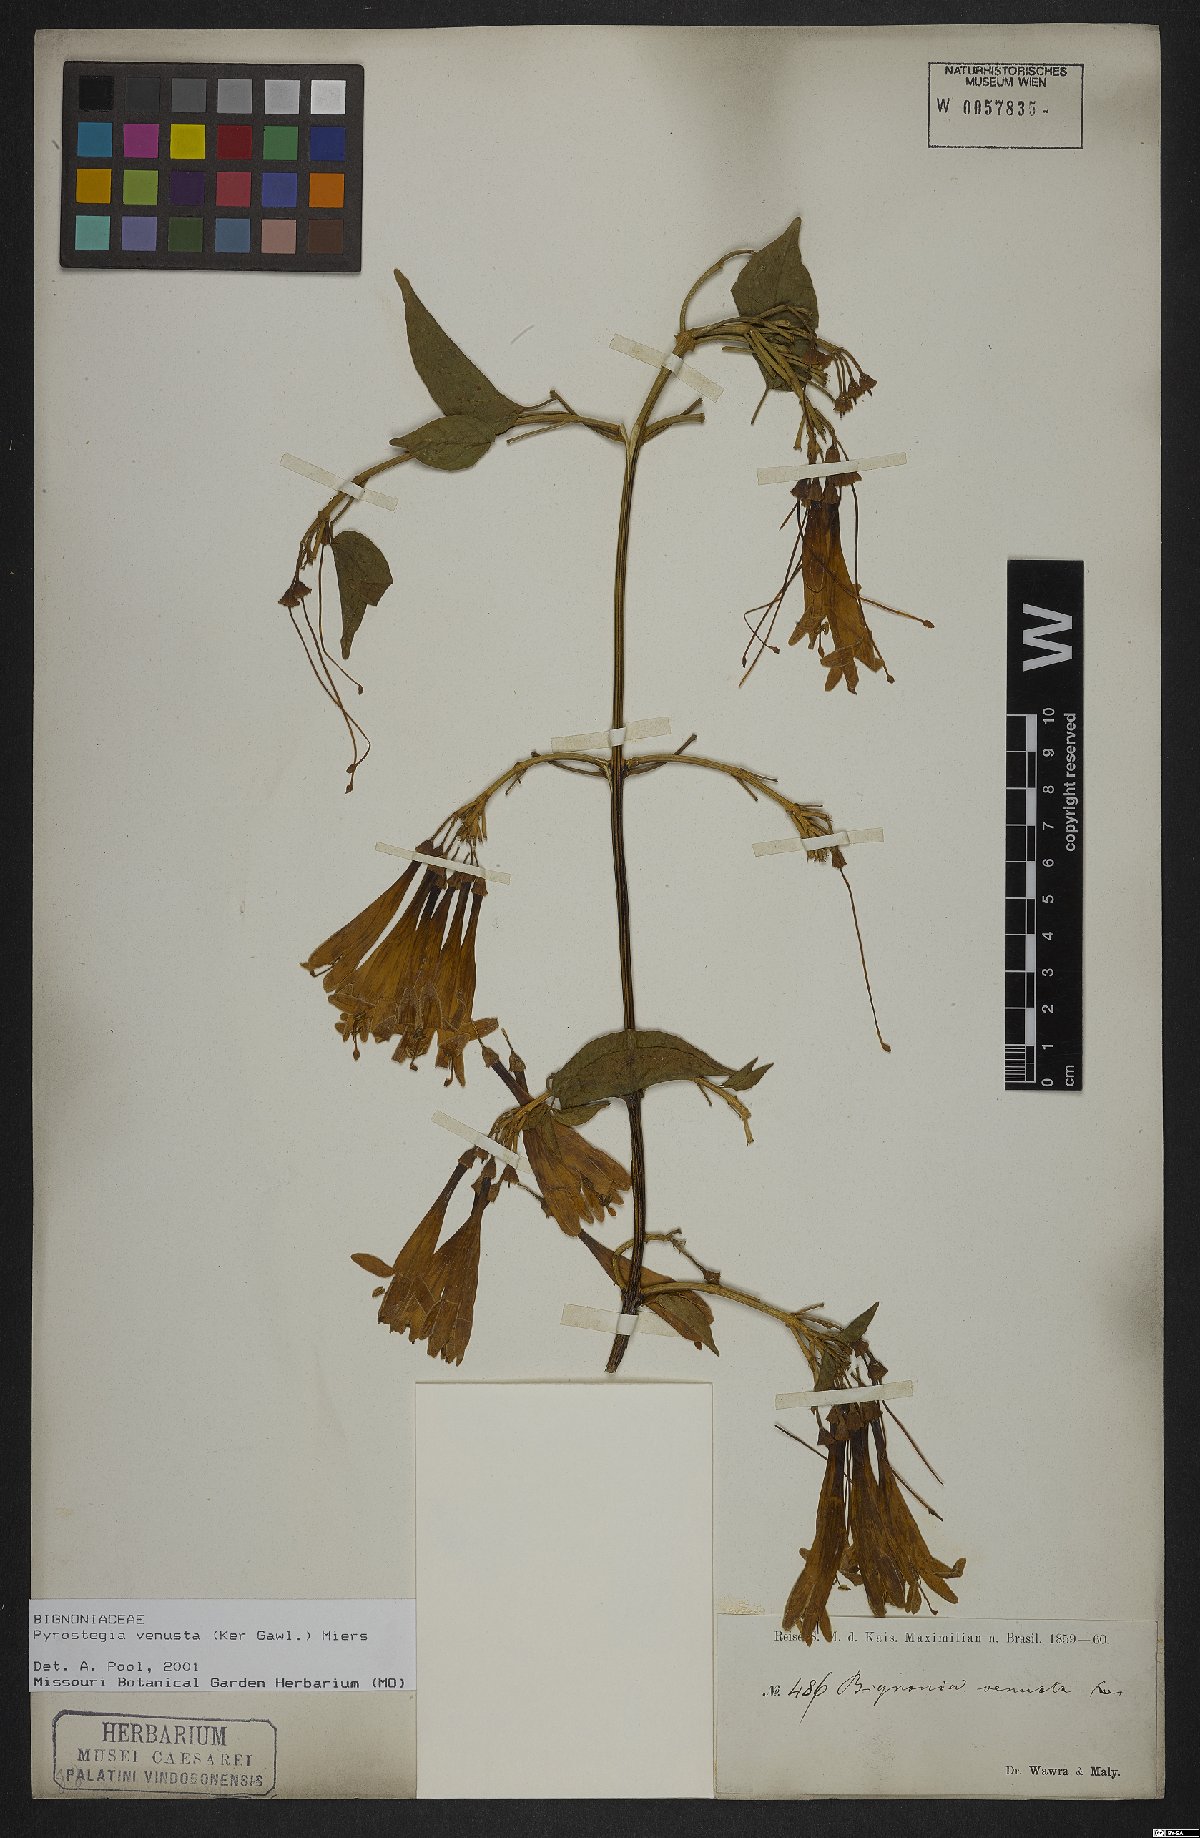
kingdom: Plantae
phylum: Tracheophyta
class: Magnoliopsida
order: Lamiales
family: Bignoniaceae
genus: Pyrostegia
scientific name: Pyrostegia venusta
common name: Flamevine
